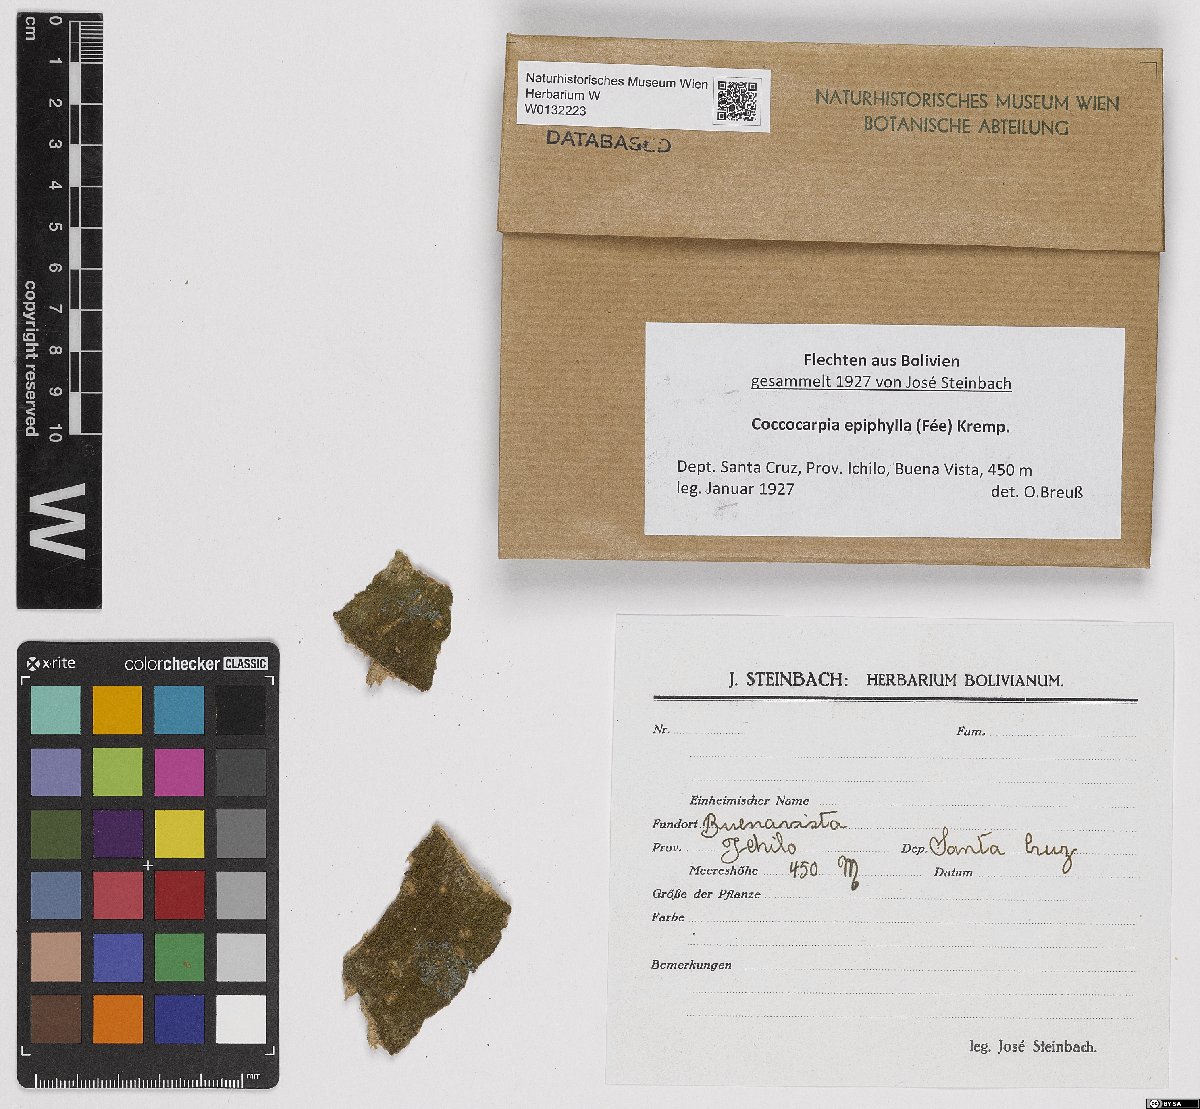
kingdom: Fungi
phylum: Ascomycota
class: Lecanoromycetes
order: Peltigerales
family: Coccocarpiaceae
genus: Coccocarpia
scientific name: Coccocarpia epiphylla
